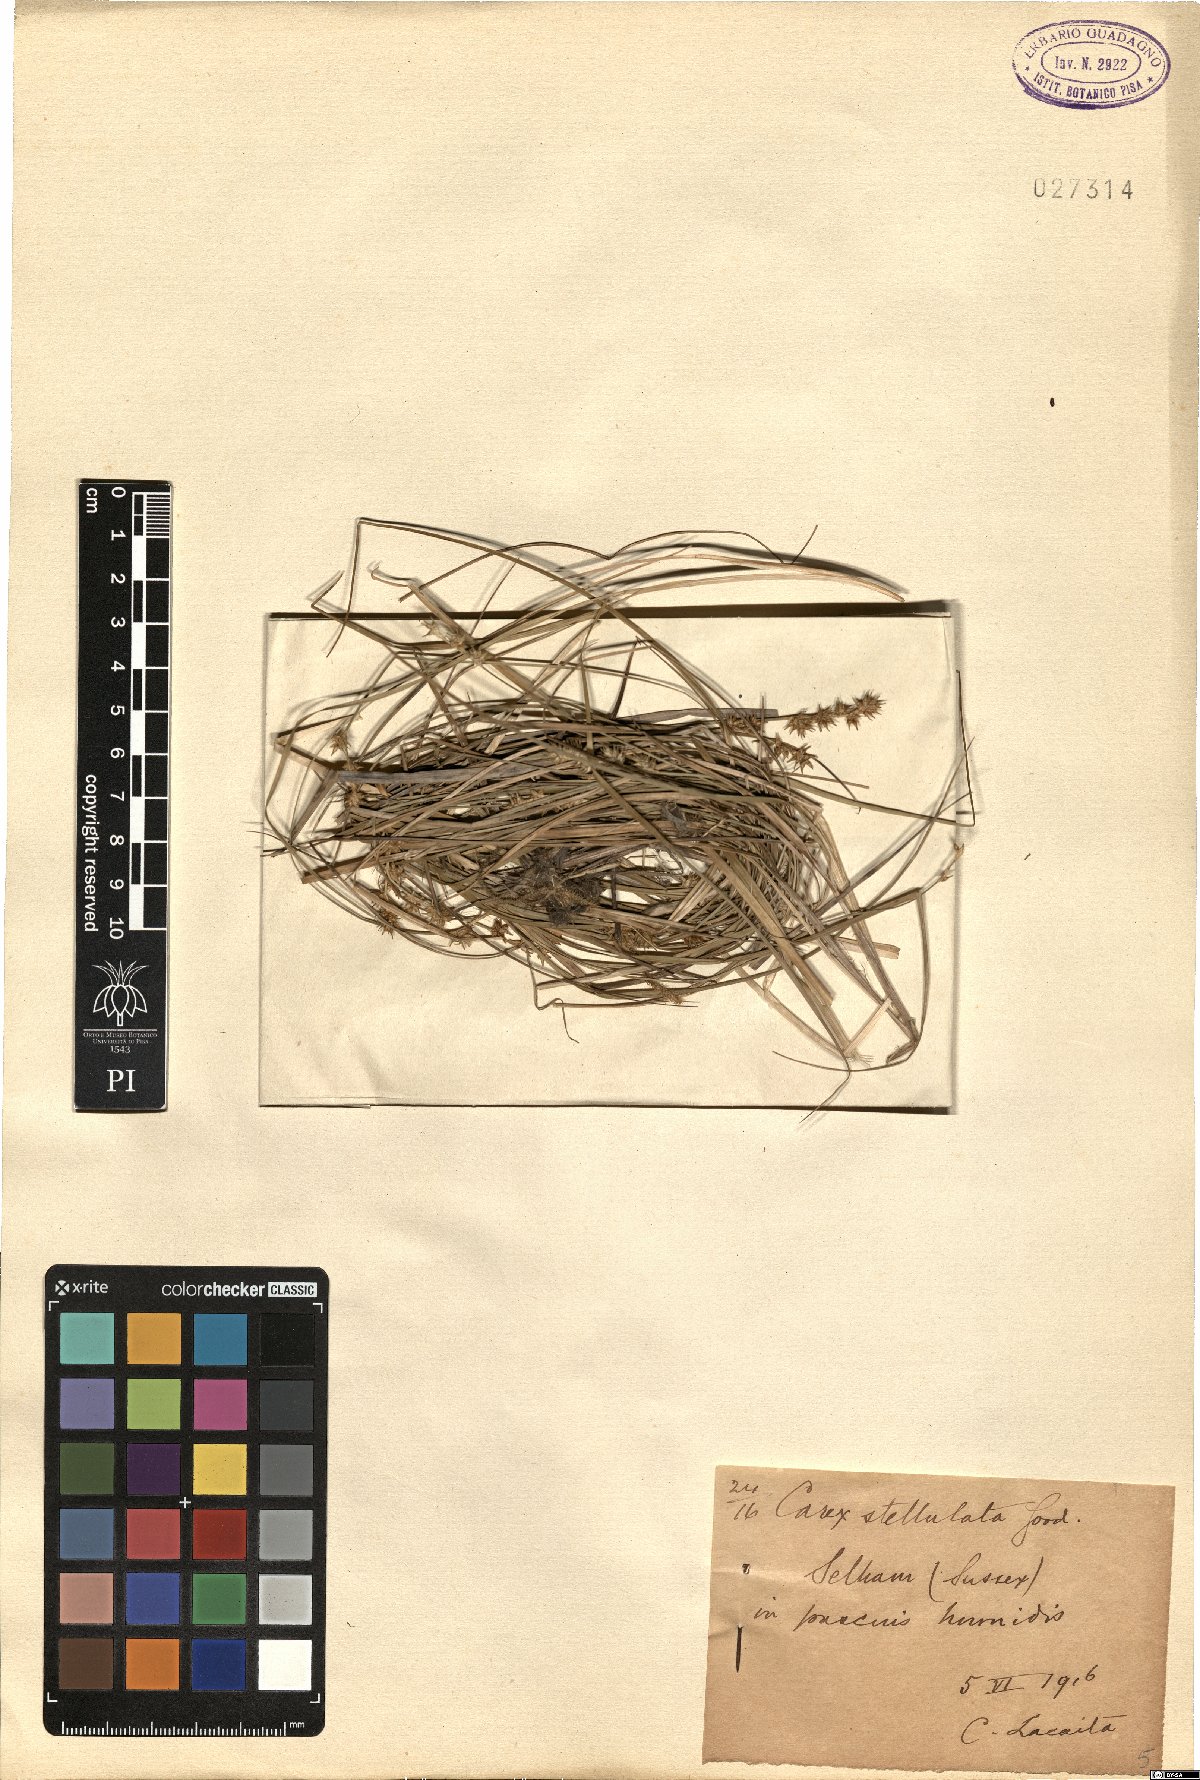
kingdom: Plantae
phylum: Tracheophyta
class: Liliopsida
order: Poales
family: Cyperaceae
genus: Carex
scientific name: Carex echinata
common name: Star sedge
